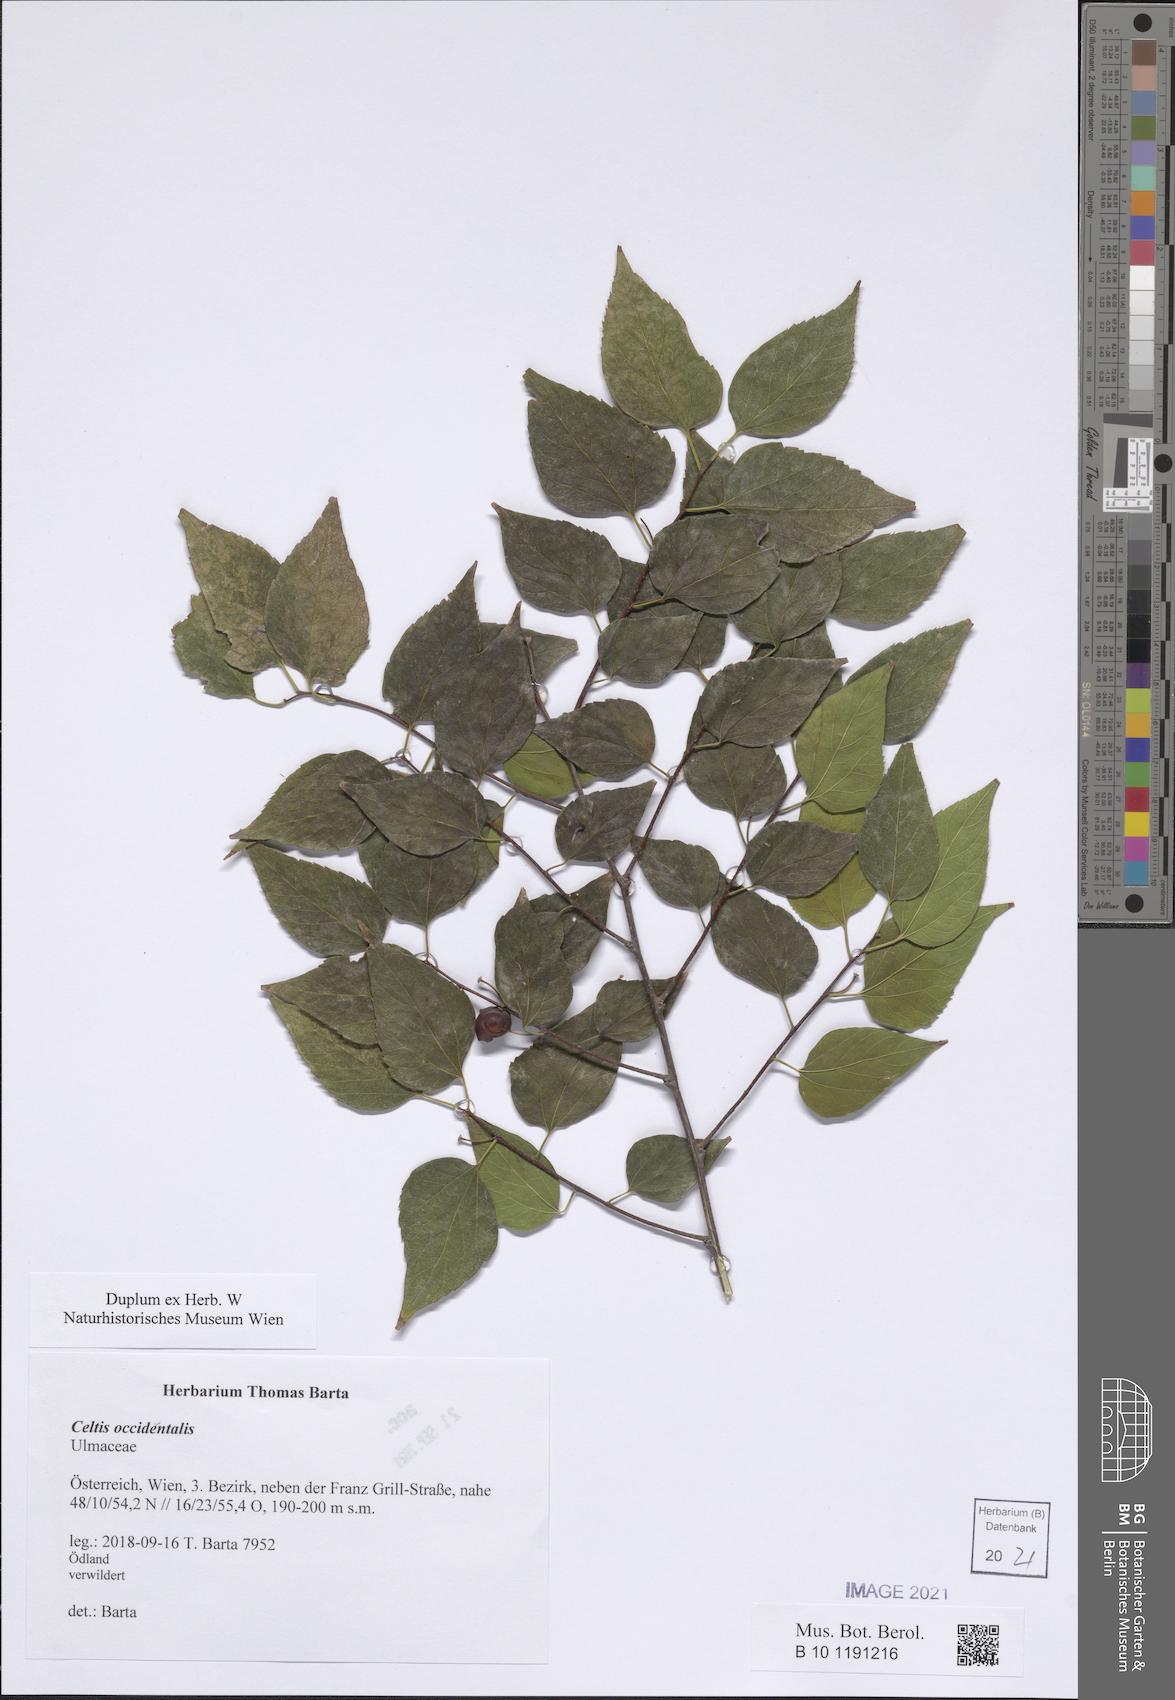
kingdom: Plantae
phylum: Tracheophyta
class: Magnoliopsida
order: Rosales
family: Cannabaceae
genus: Celtis
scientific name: Celtis occidentalis
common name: Common hackberry
